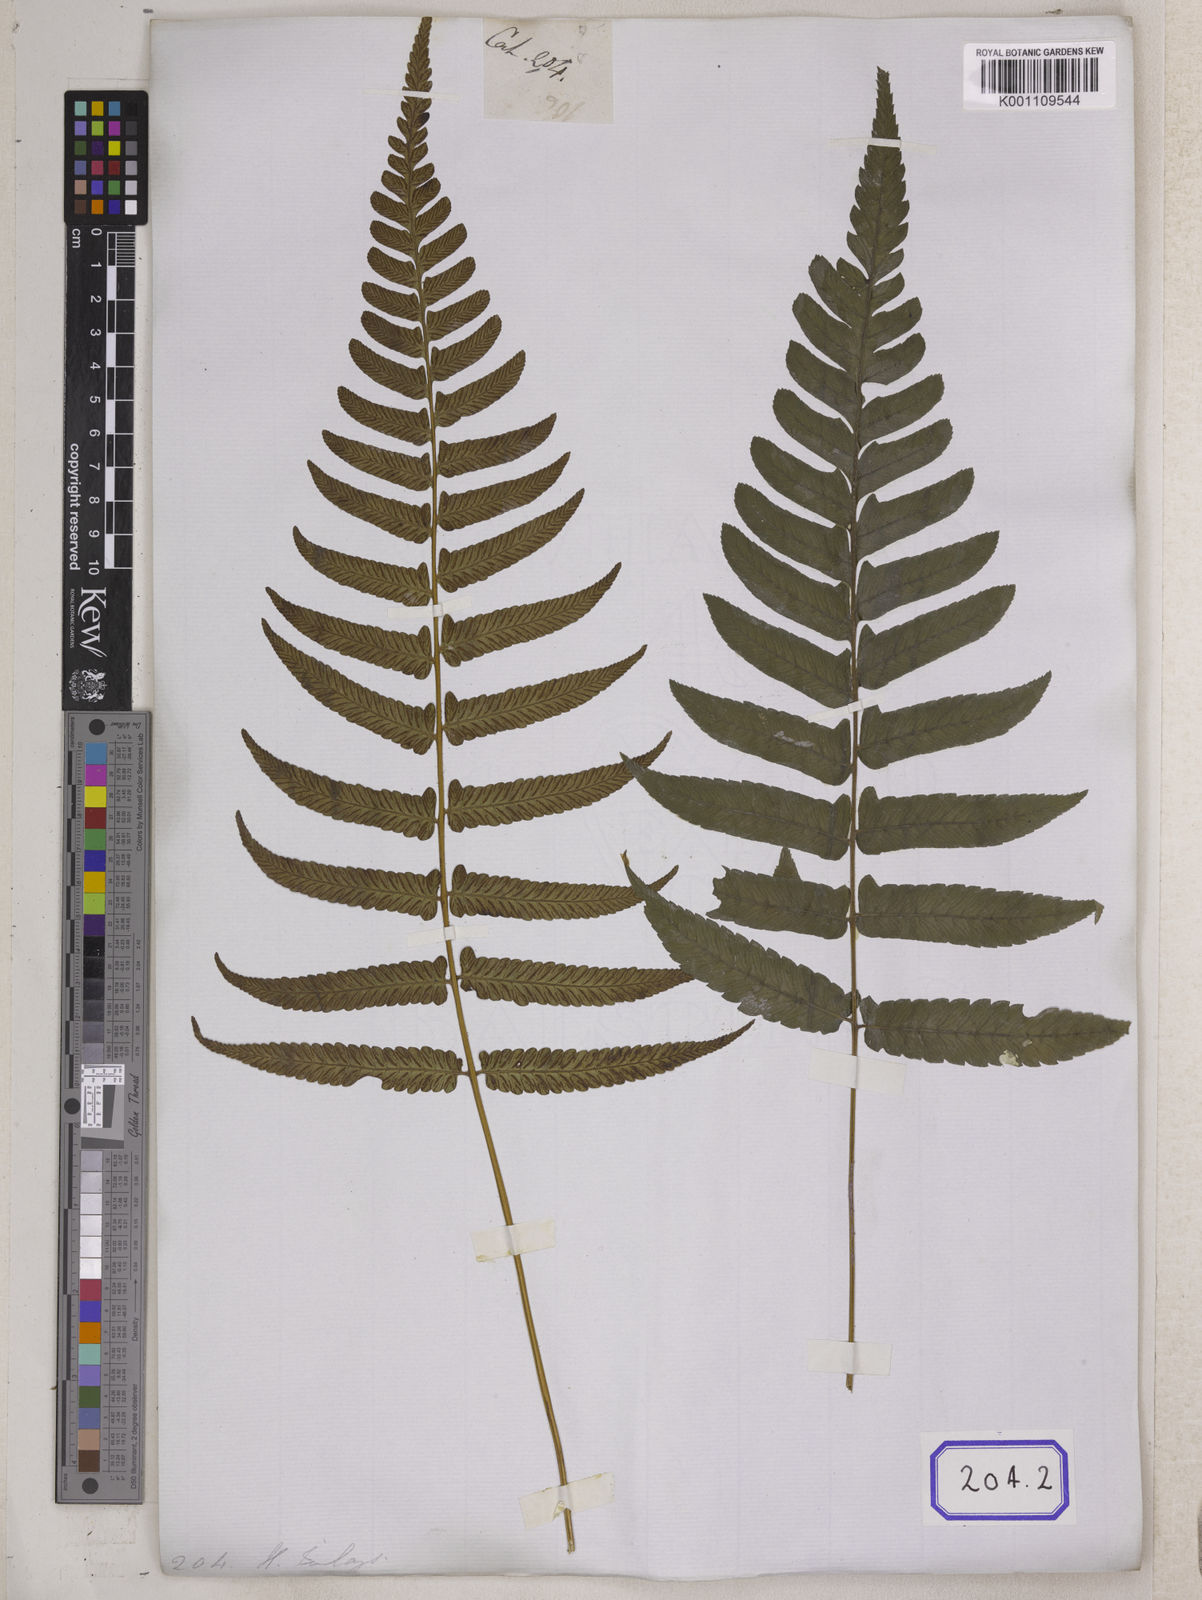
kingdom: Plantae
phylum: Tracheophyta
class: Polypodiopsida
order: Polypodiales
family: Aspleniaceae
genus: Asplenium
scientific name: Asplenium
